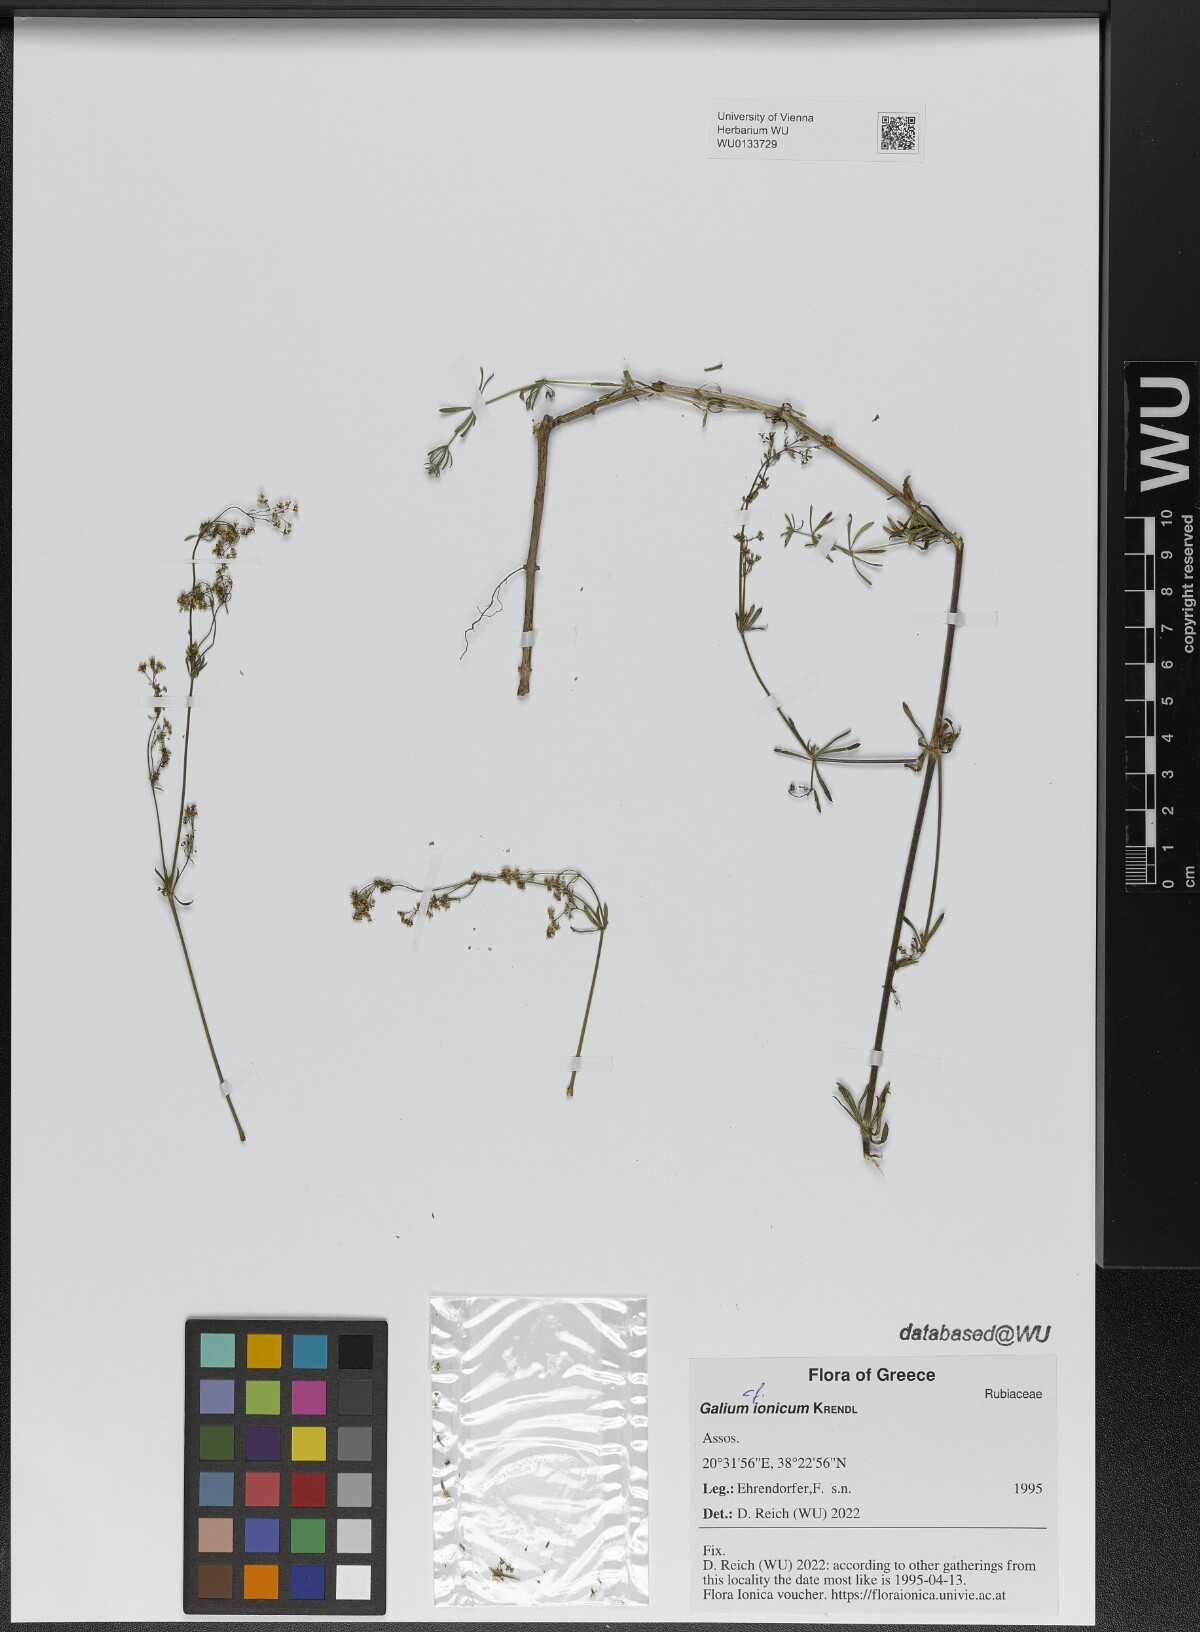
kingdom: Plantae
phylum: Tracheophyta
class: Magnoliopsida
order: Gentianales
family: Rubiaceae
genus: Galium
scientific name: Galium ionicum
